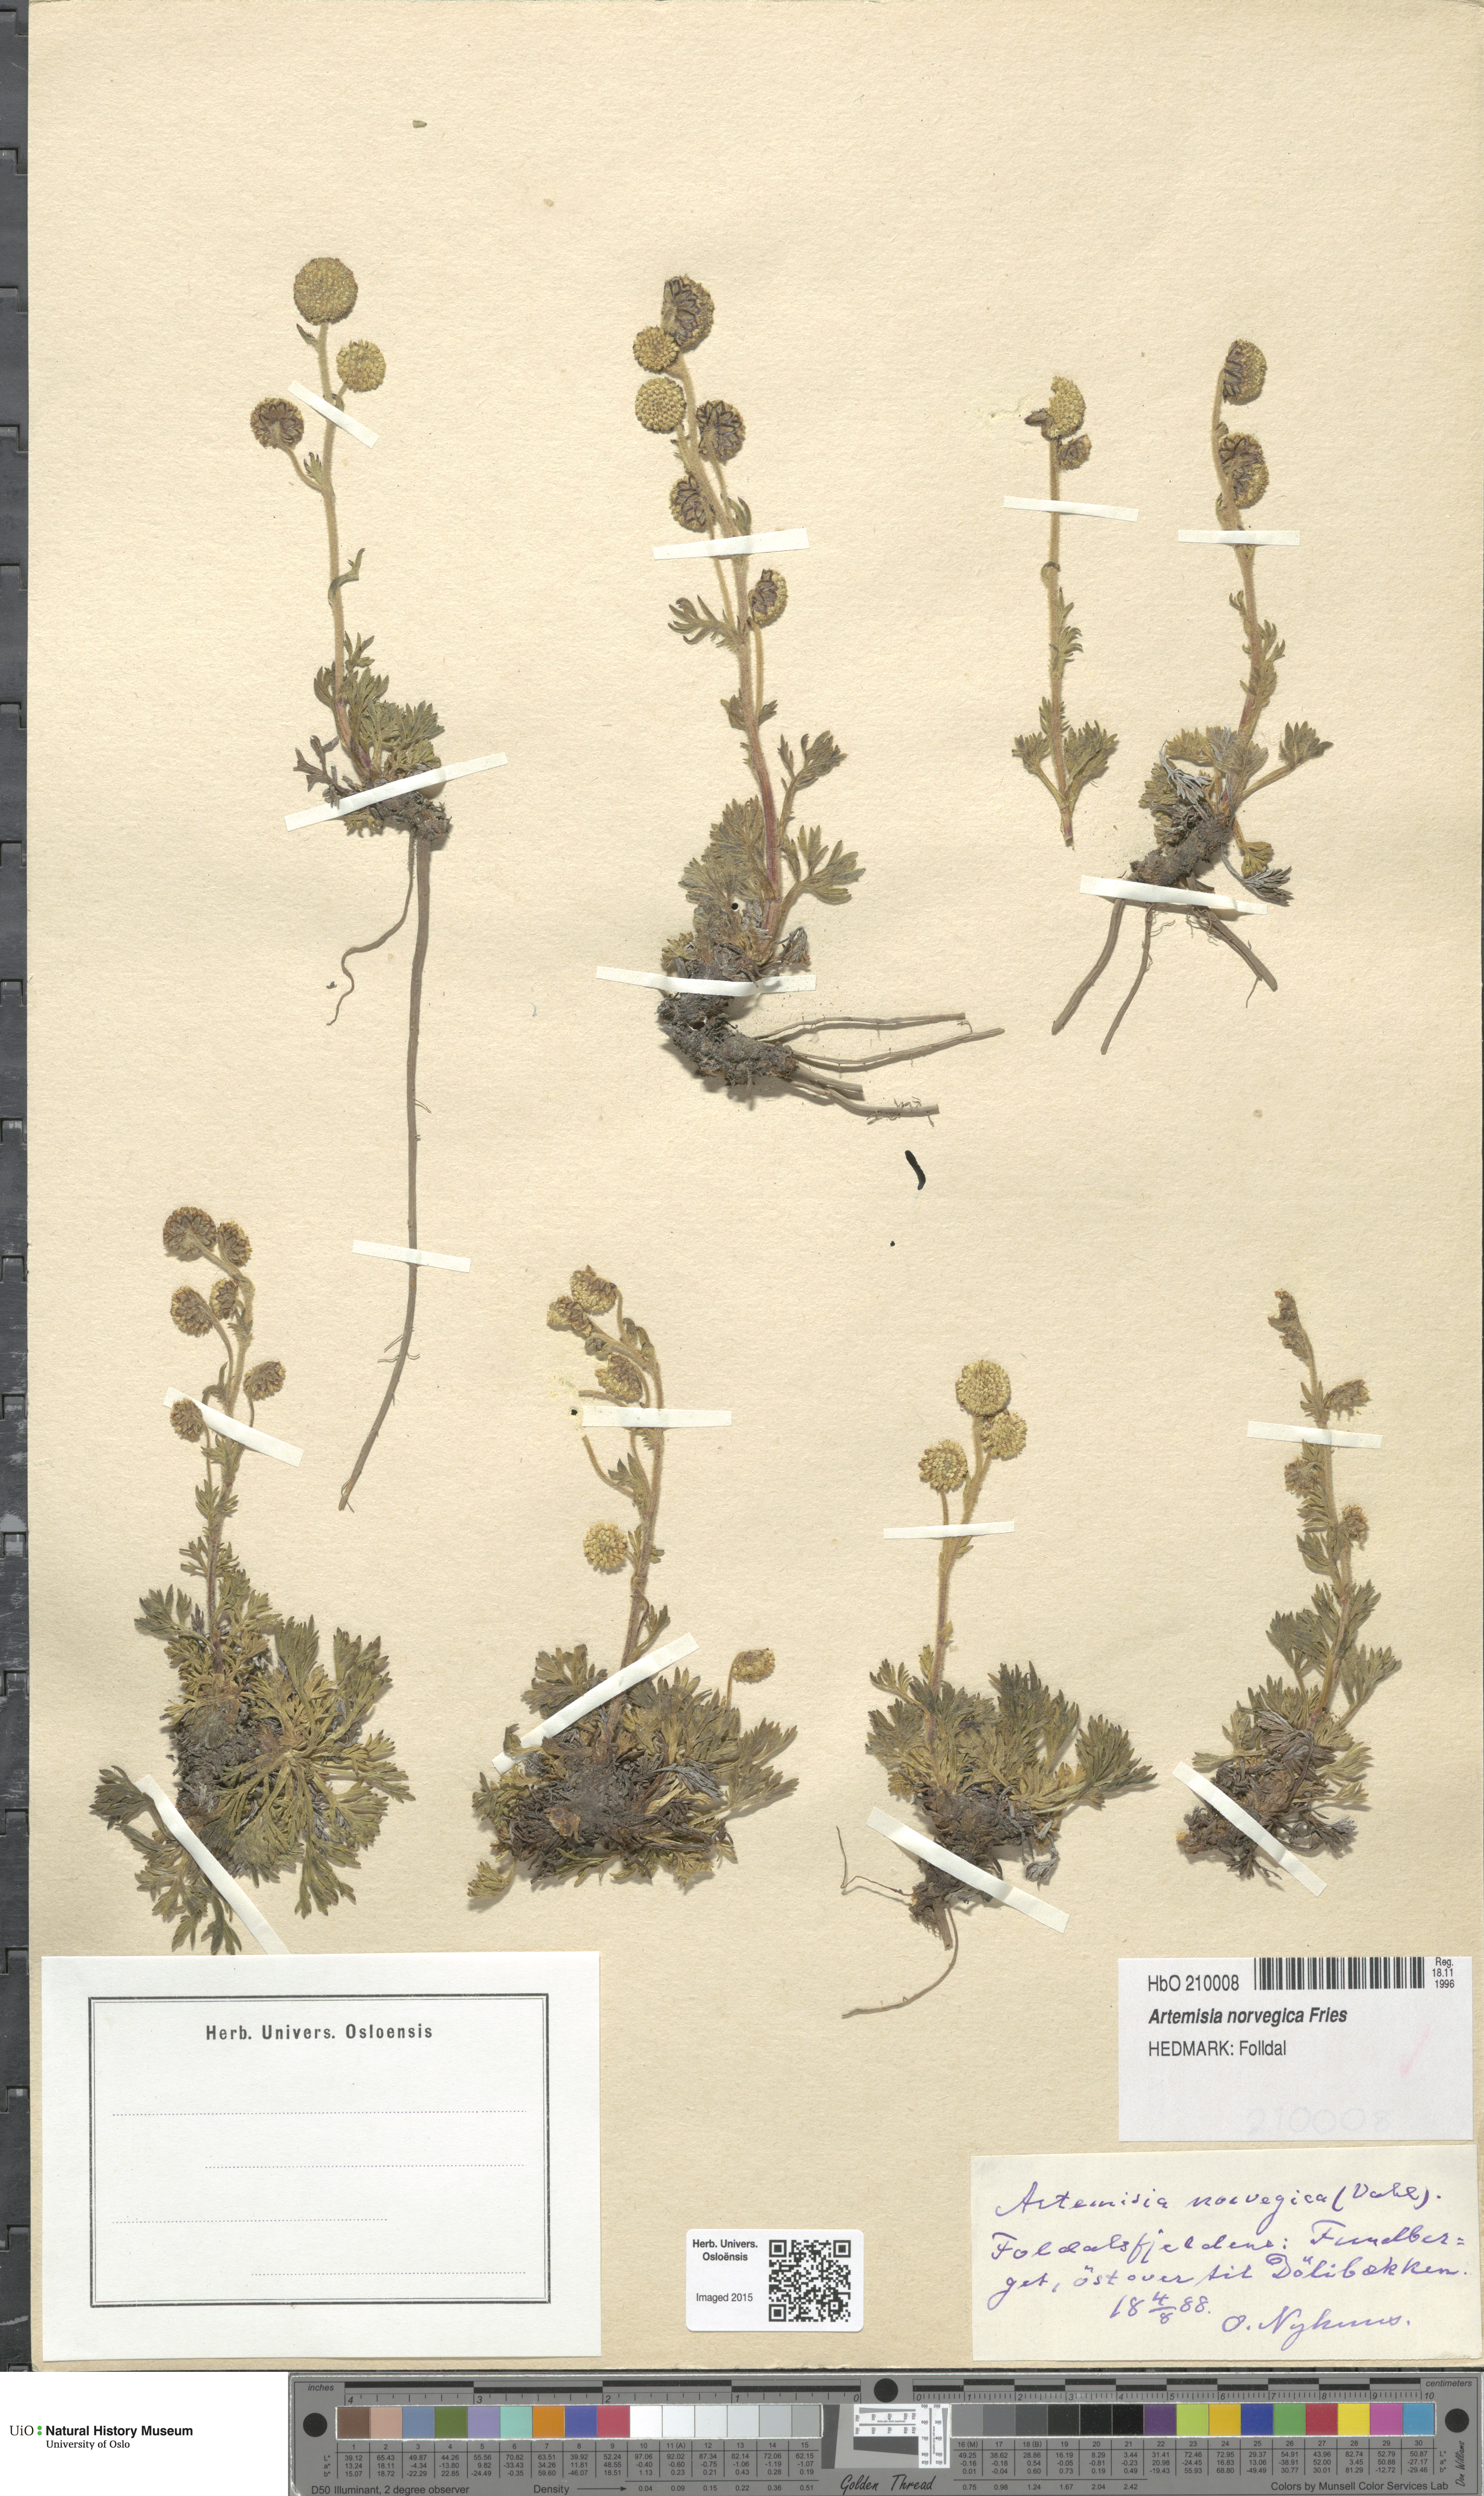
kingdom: Plantae
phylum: Tracheophyta
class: Magnoliopsida
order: Asterales
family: Asteraceae
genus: Artemisia
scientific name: Artemisia norvegica
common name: Norwegian mugwort
